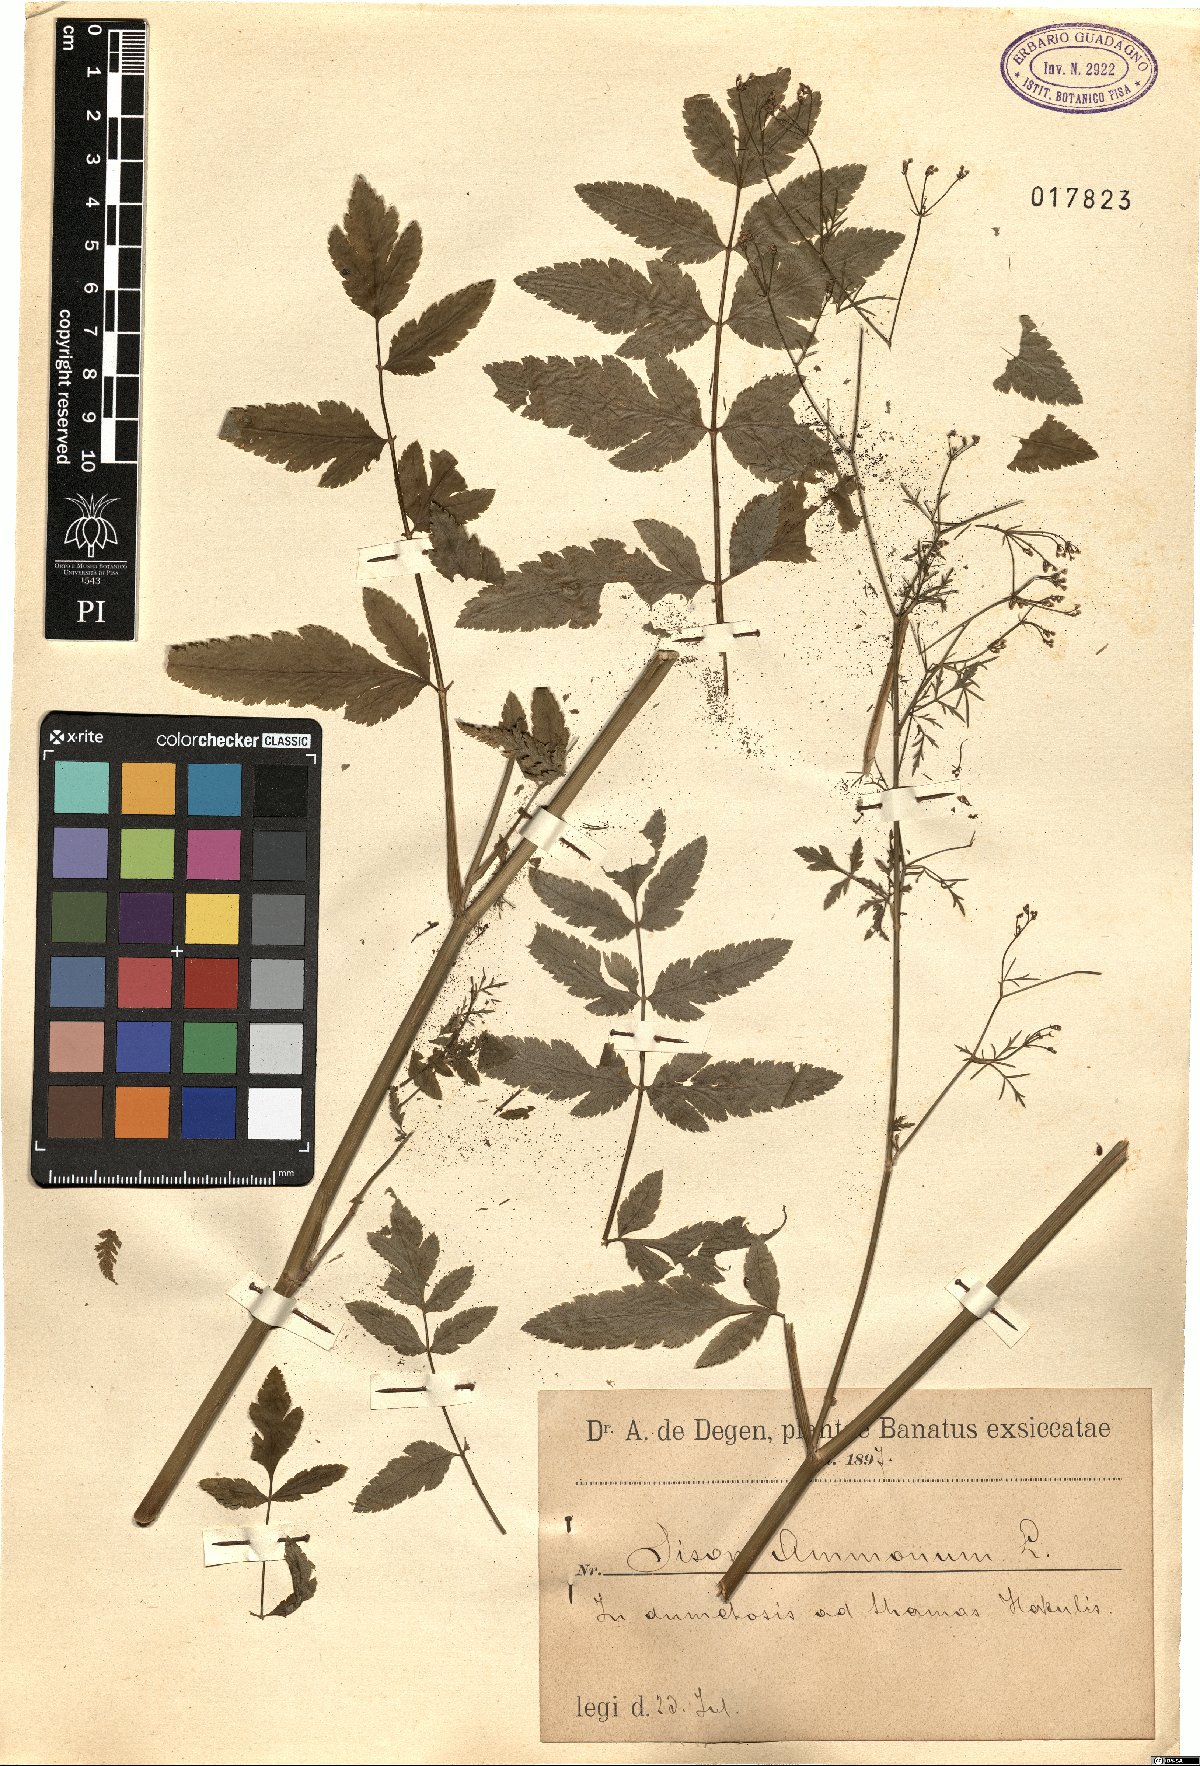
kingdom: Plantae
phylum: Tracheophyta
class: Magnoliopsida
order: Apiales
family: Apiaceae
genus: Sison
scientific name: Sison amomum
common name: Stone-parsley
